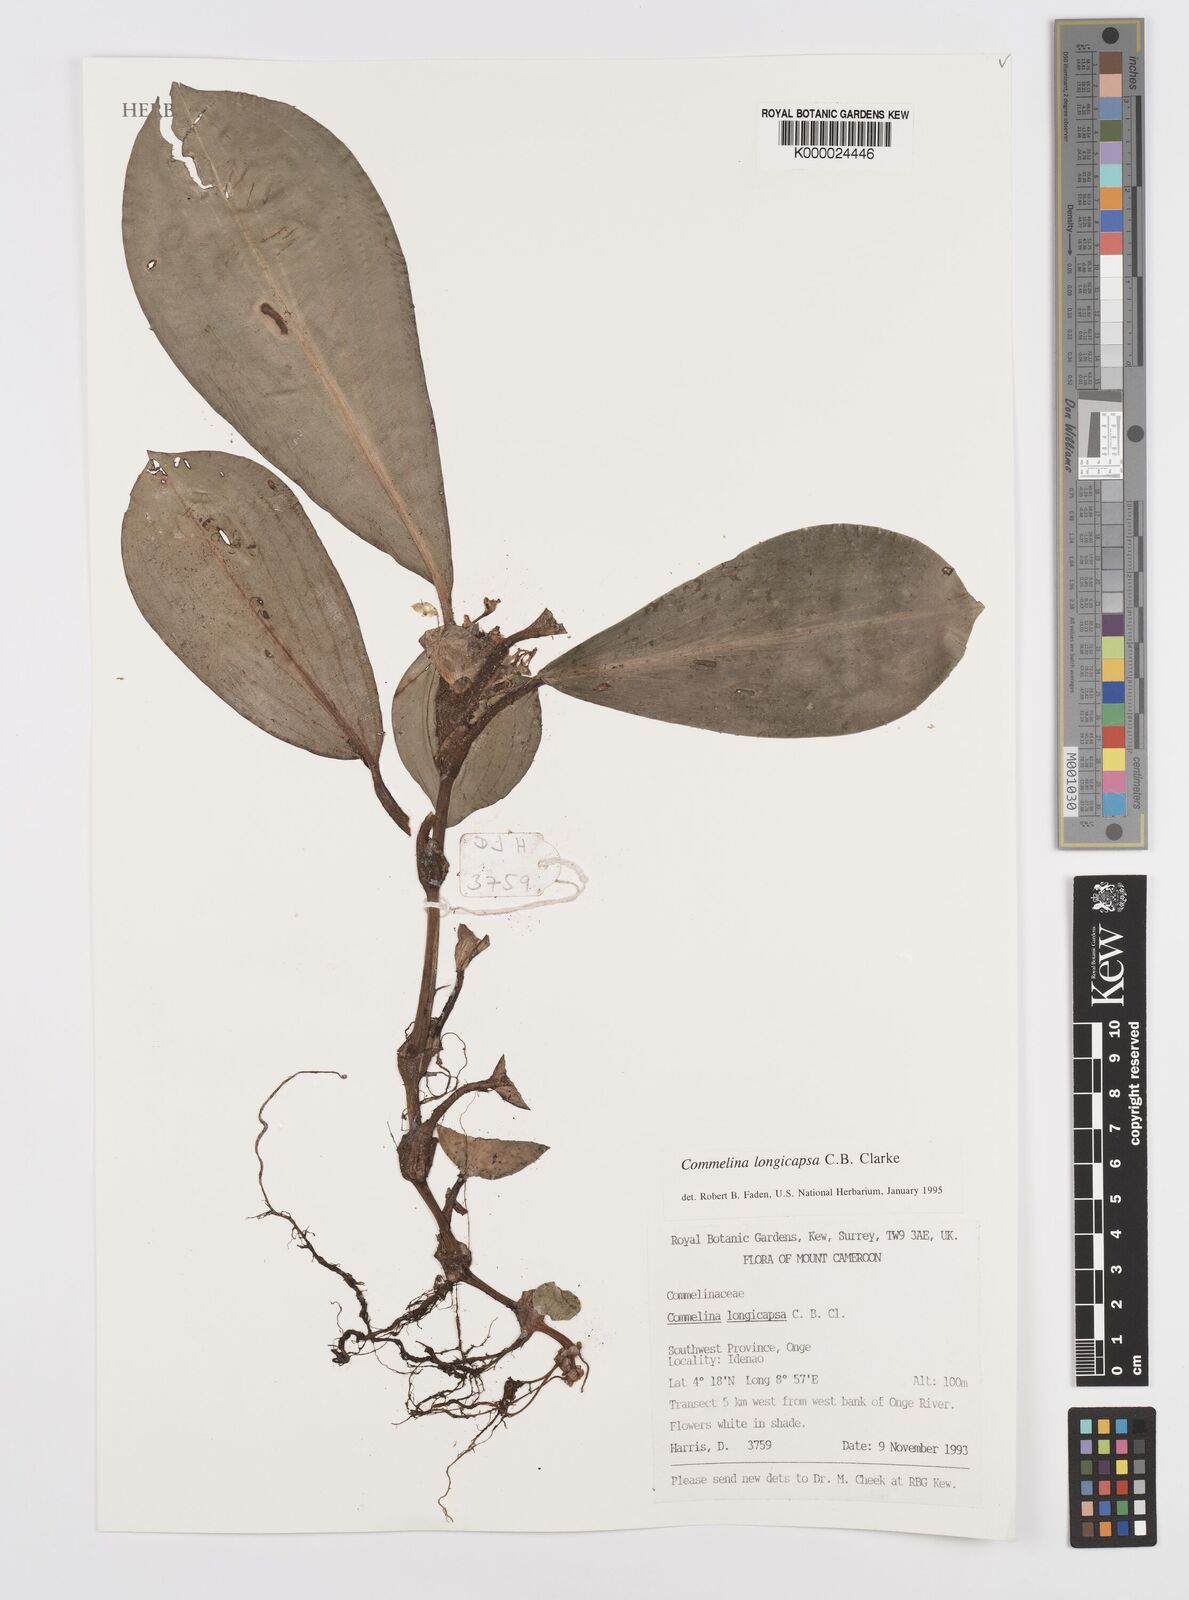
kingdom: Plantae
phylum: Tracheophyta
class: Liliopsida
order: Commelinales
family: Commelinaceae
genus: Commelina
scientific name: Commelina longicapsa
